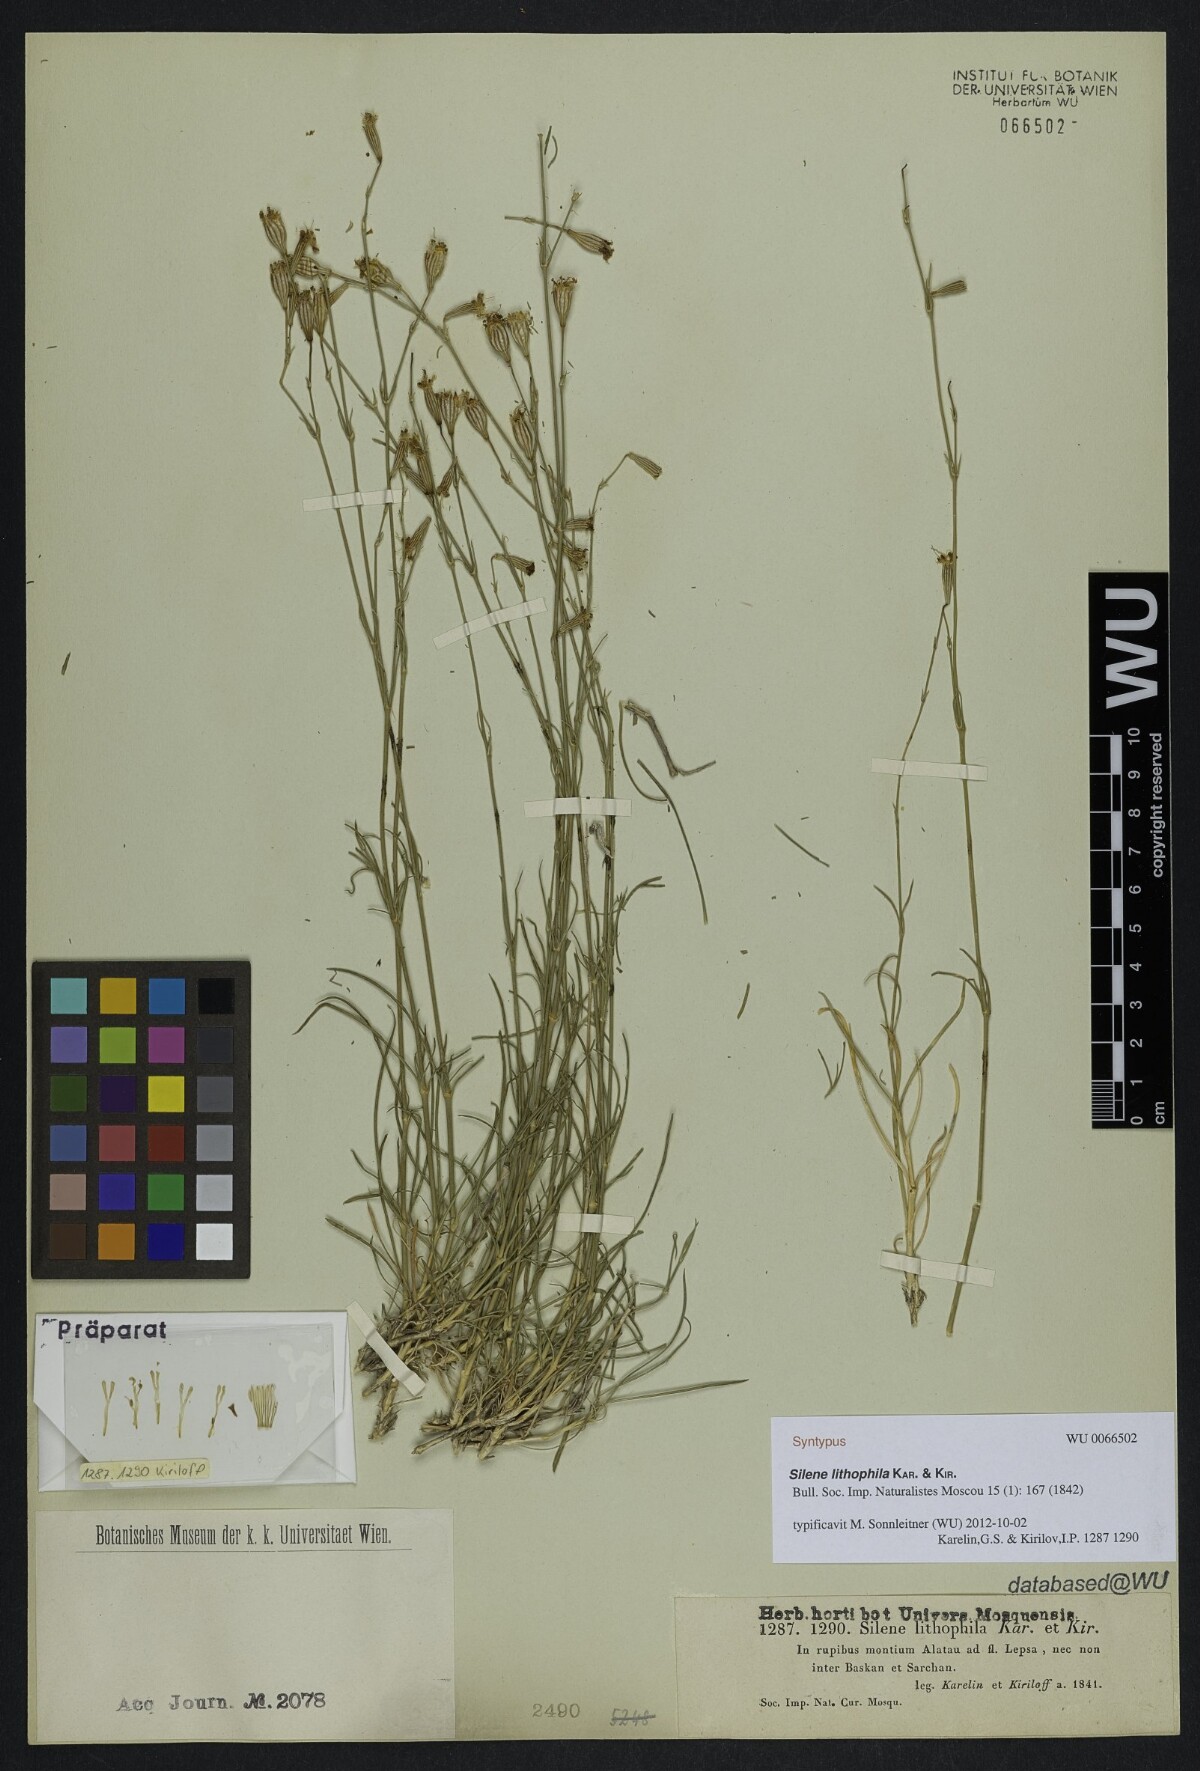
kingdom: Plantae
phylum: Tracheophyta
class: Magnoliopsida
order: Caryophyllales
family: Caryophyllaceae
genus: Silene
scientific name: Silene lithophila
